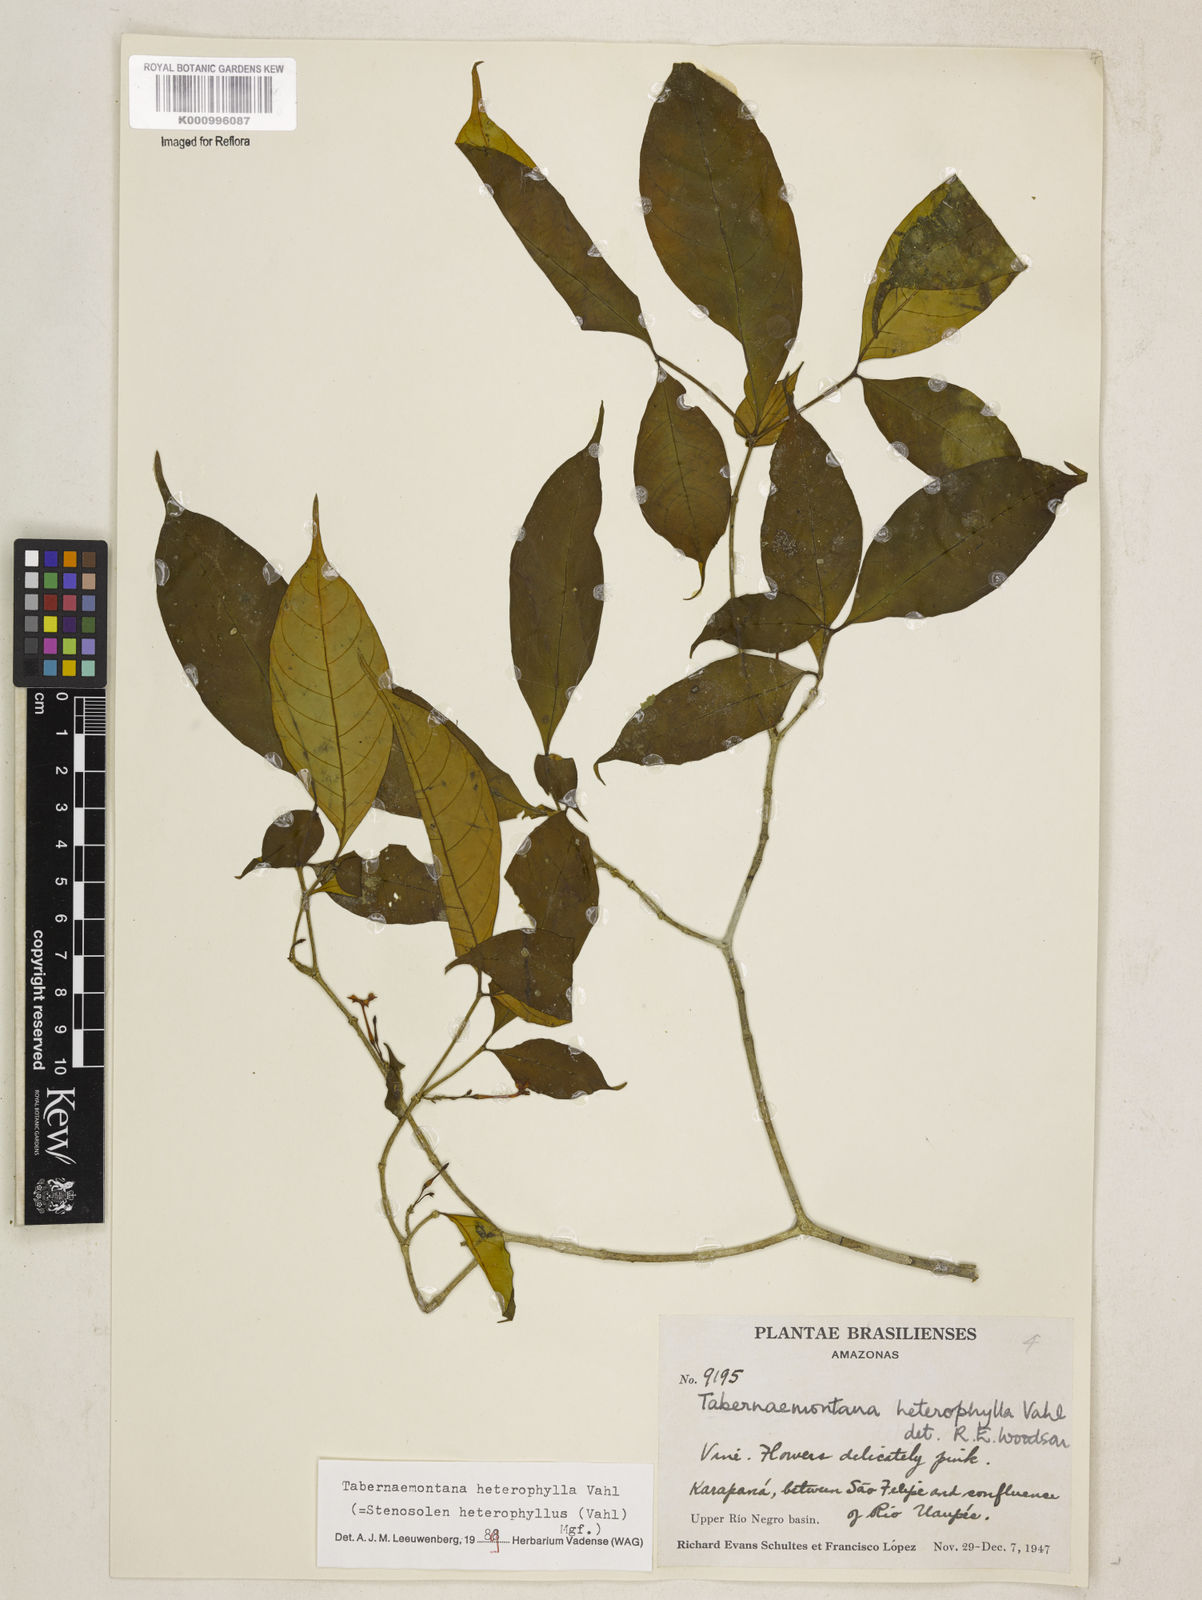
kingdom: Plantae
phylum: Tracheophyta
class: Magnoliopsida
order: Gentianales
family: Apocynaceae
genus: Tabernaemontana
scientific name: Tabernaemontana heterophylla
